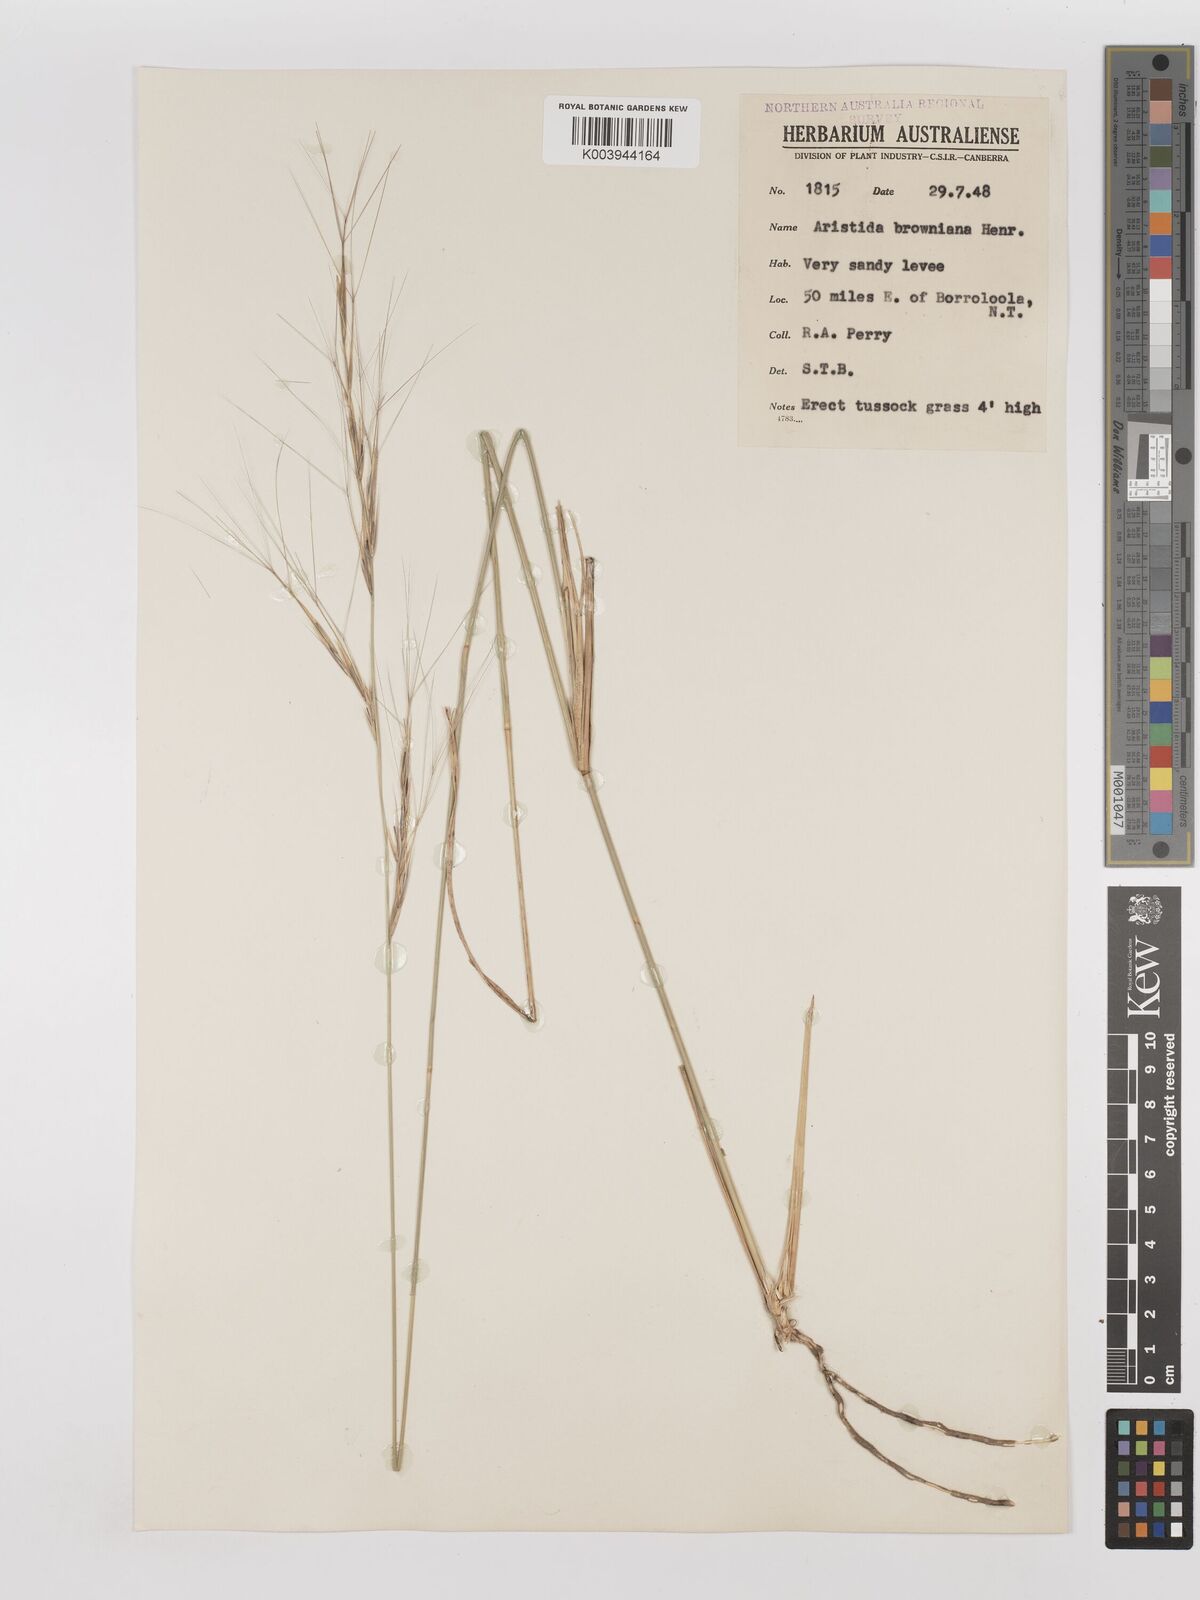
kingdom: Plantae
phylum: Tracheophyta
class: Liliopsida
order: Poales
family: Poaceae
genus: Aristida
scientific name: Aristida holathera
